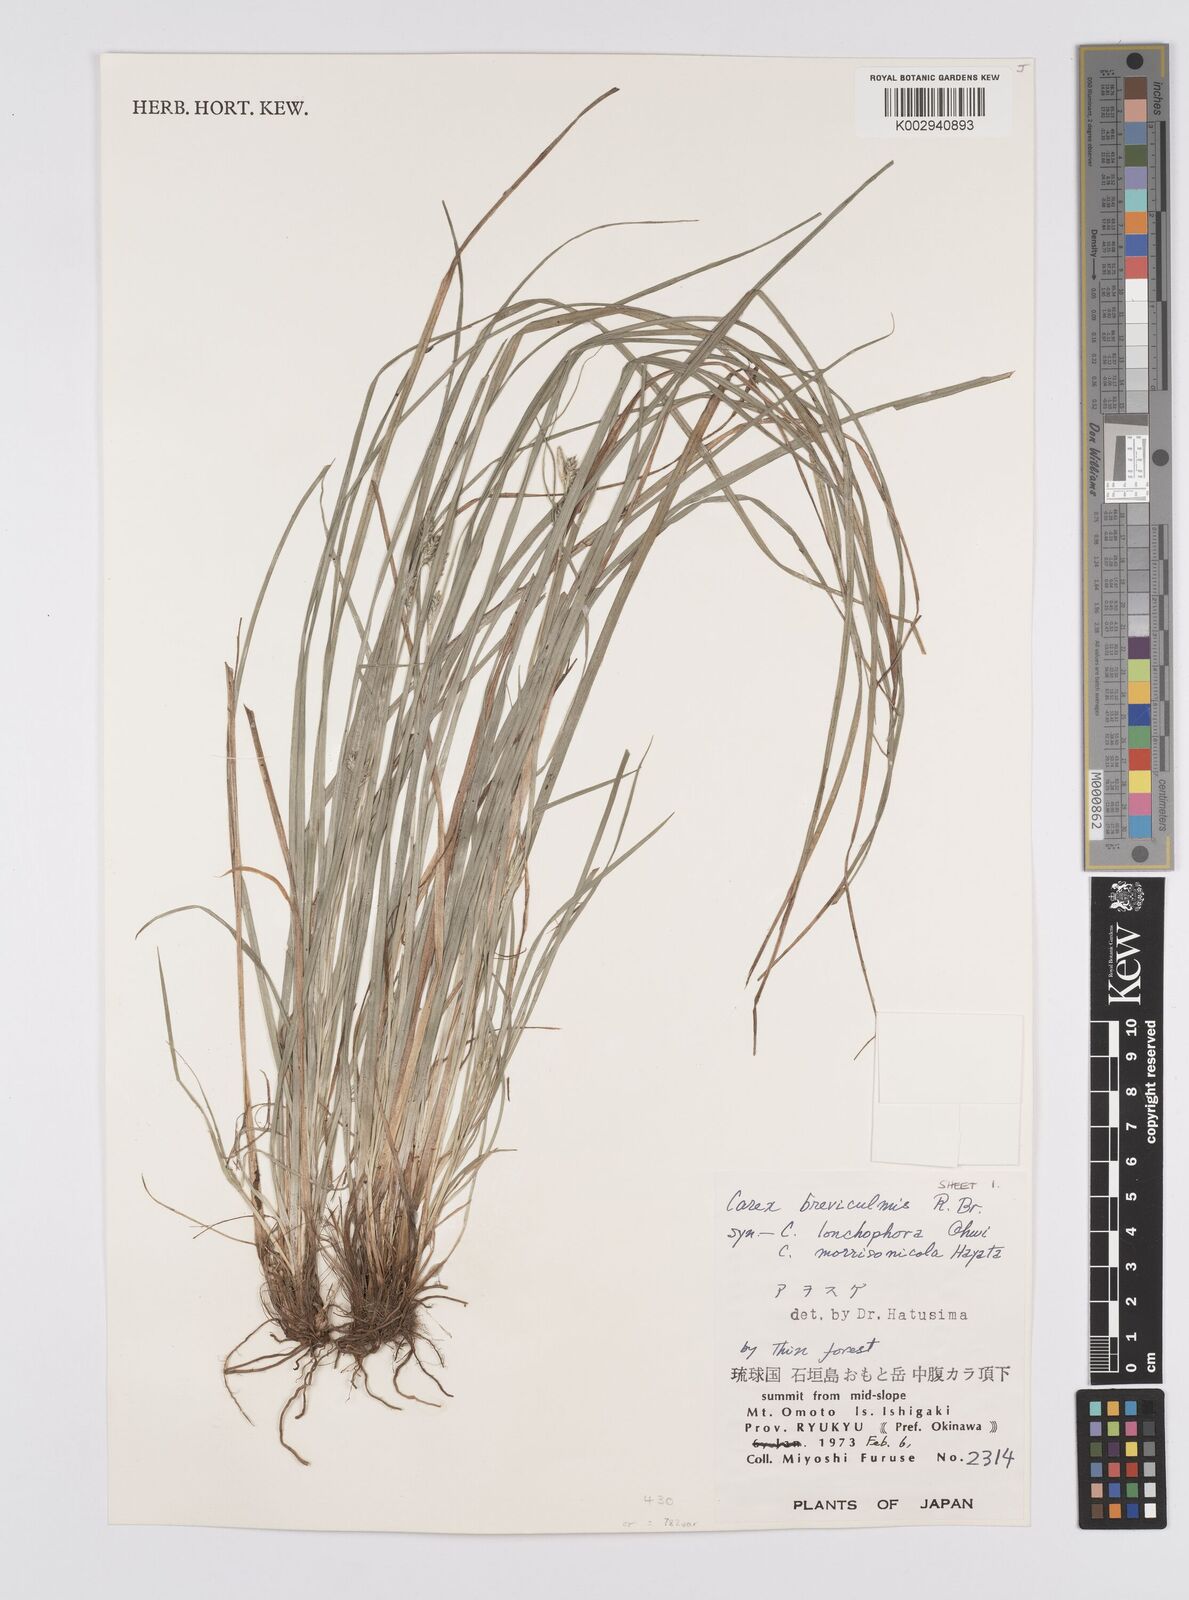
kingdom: Plantae
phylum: Tracheophyta
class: Liliopsida
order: Poales
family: Cyperaceae
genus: Carex
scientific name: Carex breviculmis
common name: Asian shortstem sedge
